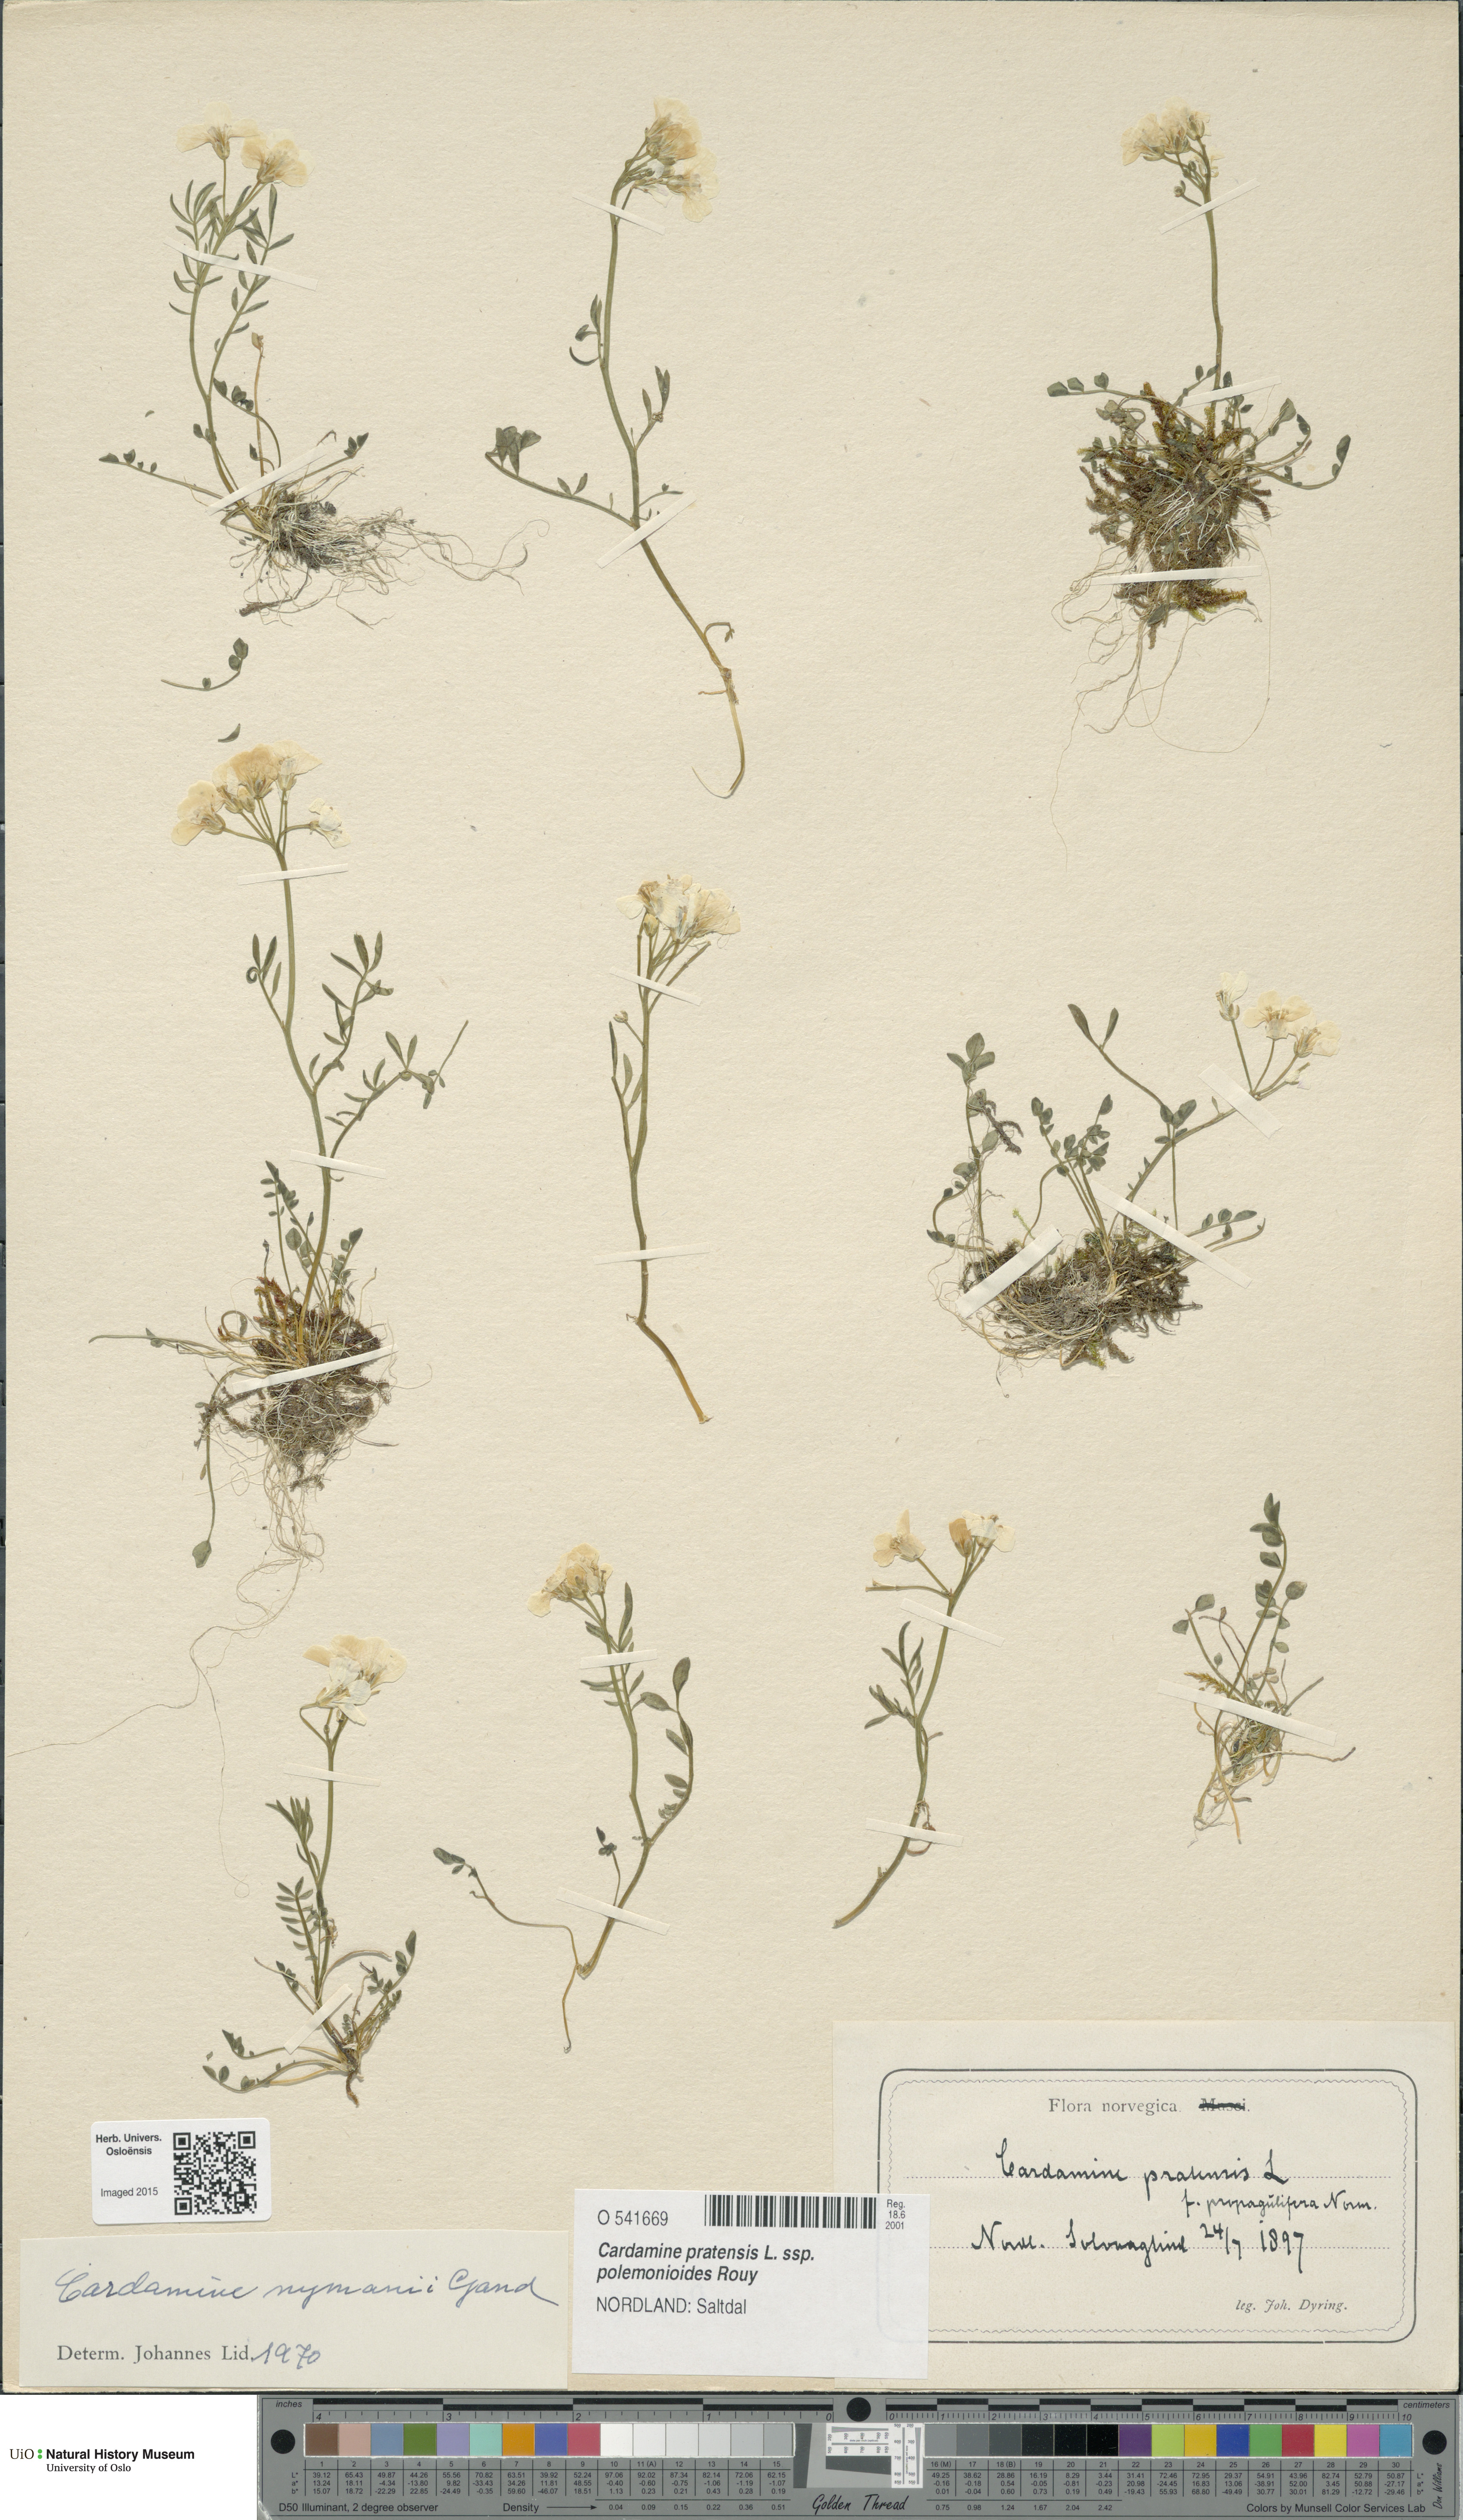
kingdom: Plantae
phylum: Tracheophyta
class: Magnoliopsida
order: Brassicales
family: Brassicaceae
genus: Cardamine
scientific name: Cardamine nymanii
